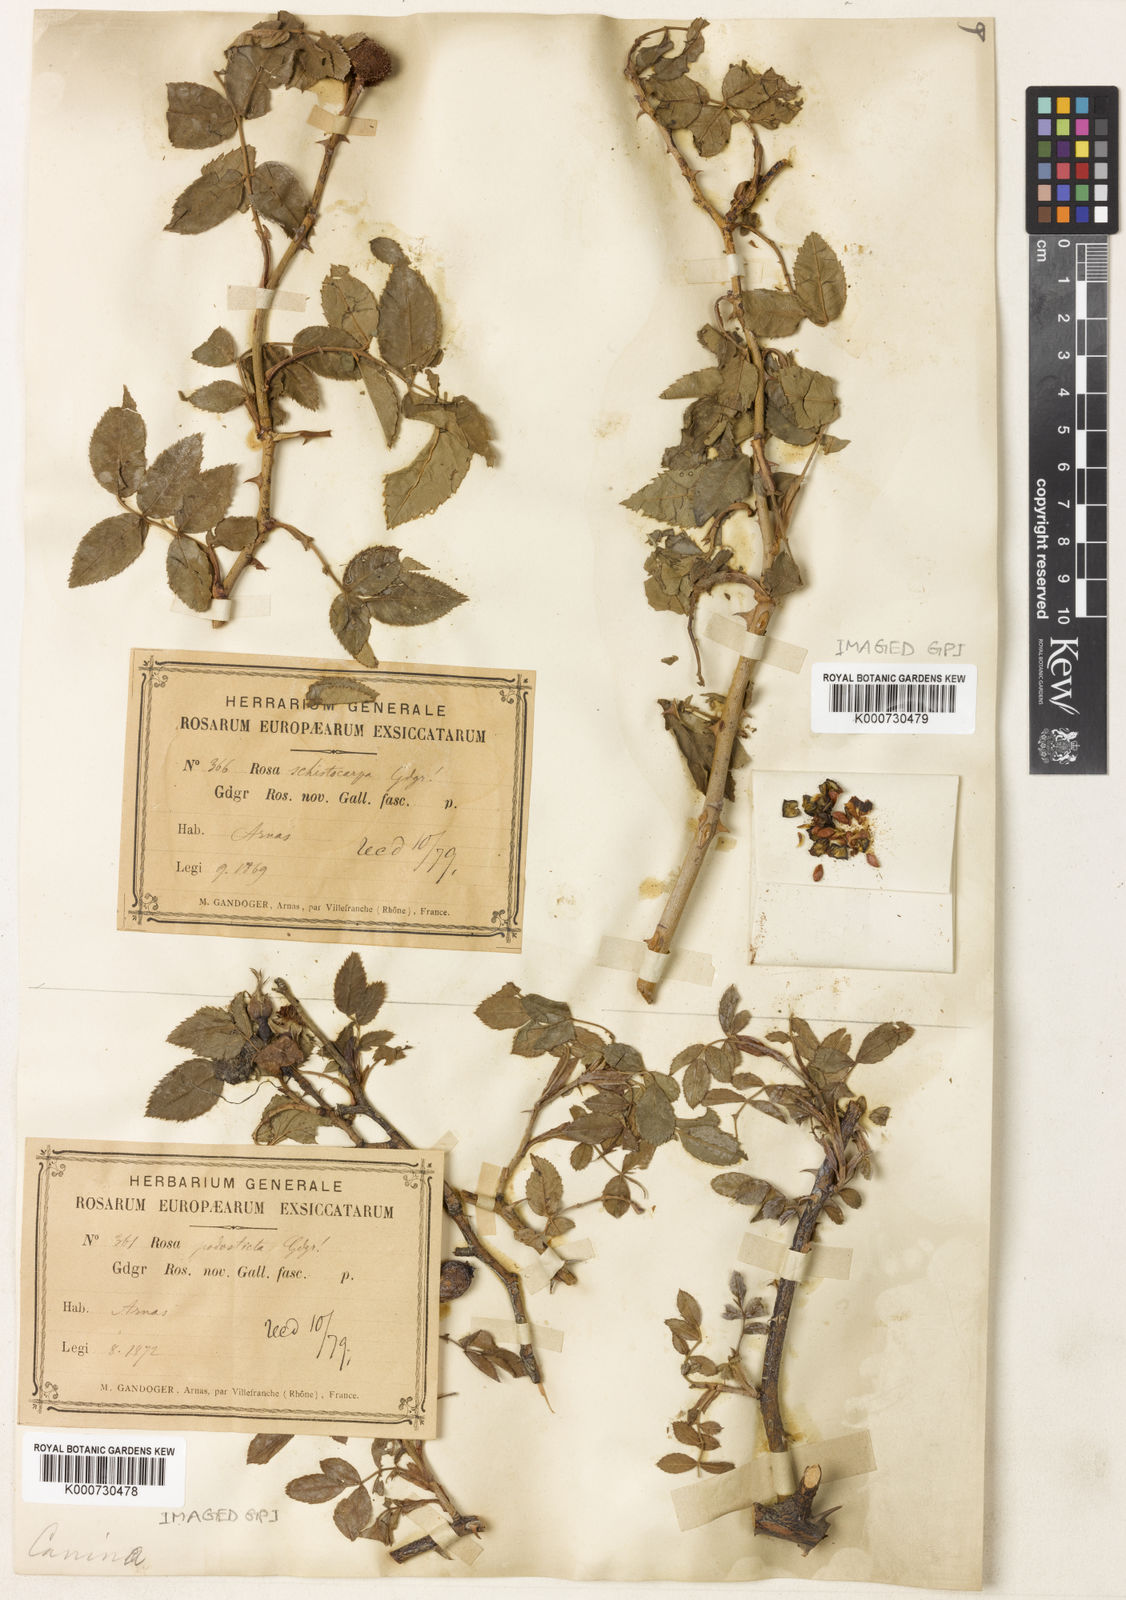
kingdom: Plantae
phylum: Tracheophyta
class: Magnoliopsida
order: Rosales
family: Rosaceae
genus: Rosa
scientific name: Rosa canina
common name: Dog rose
